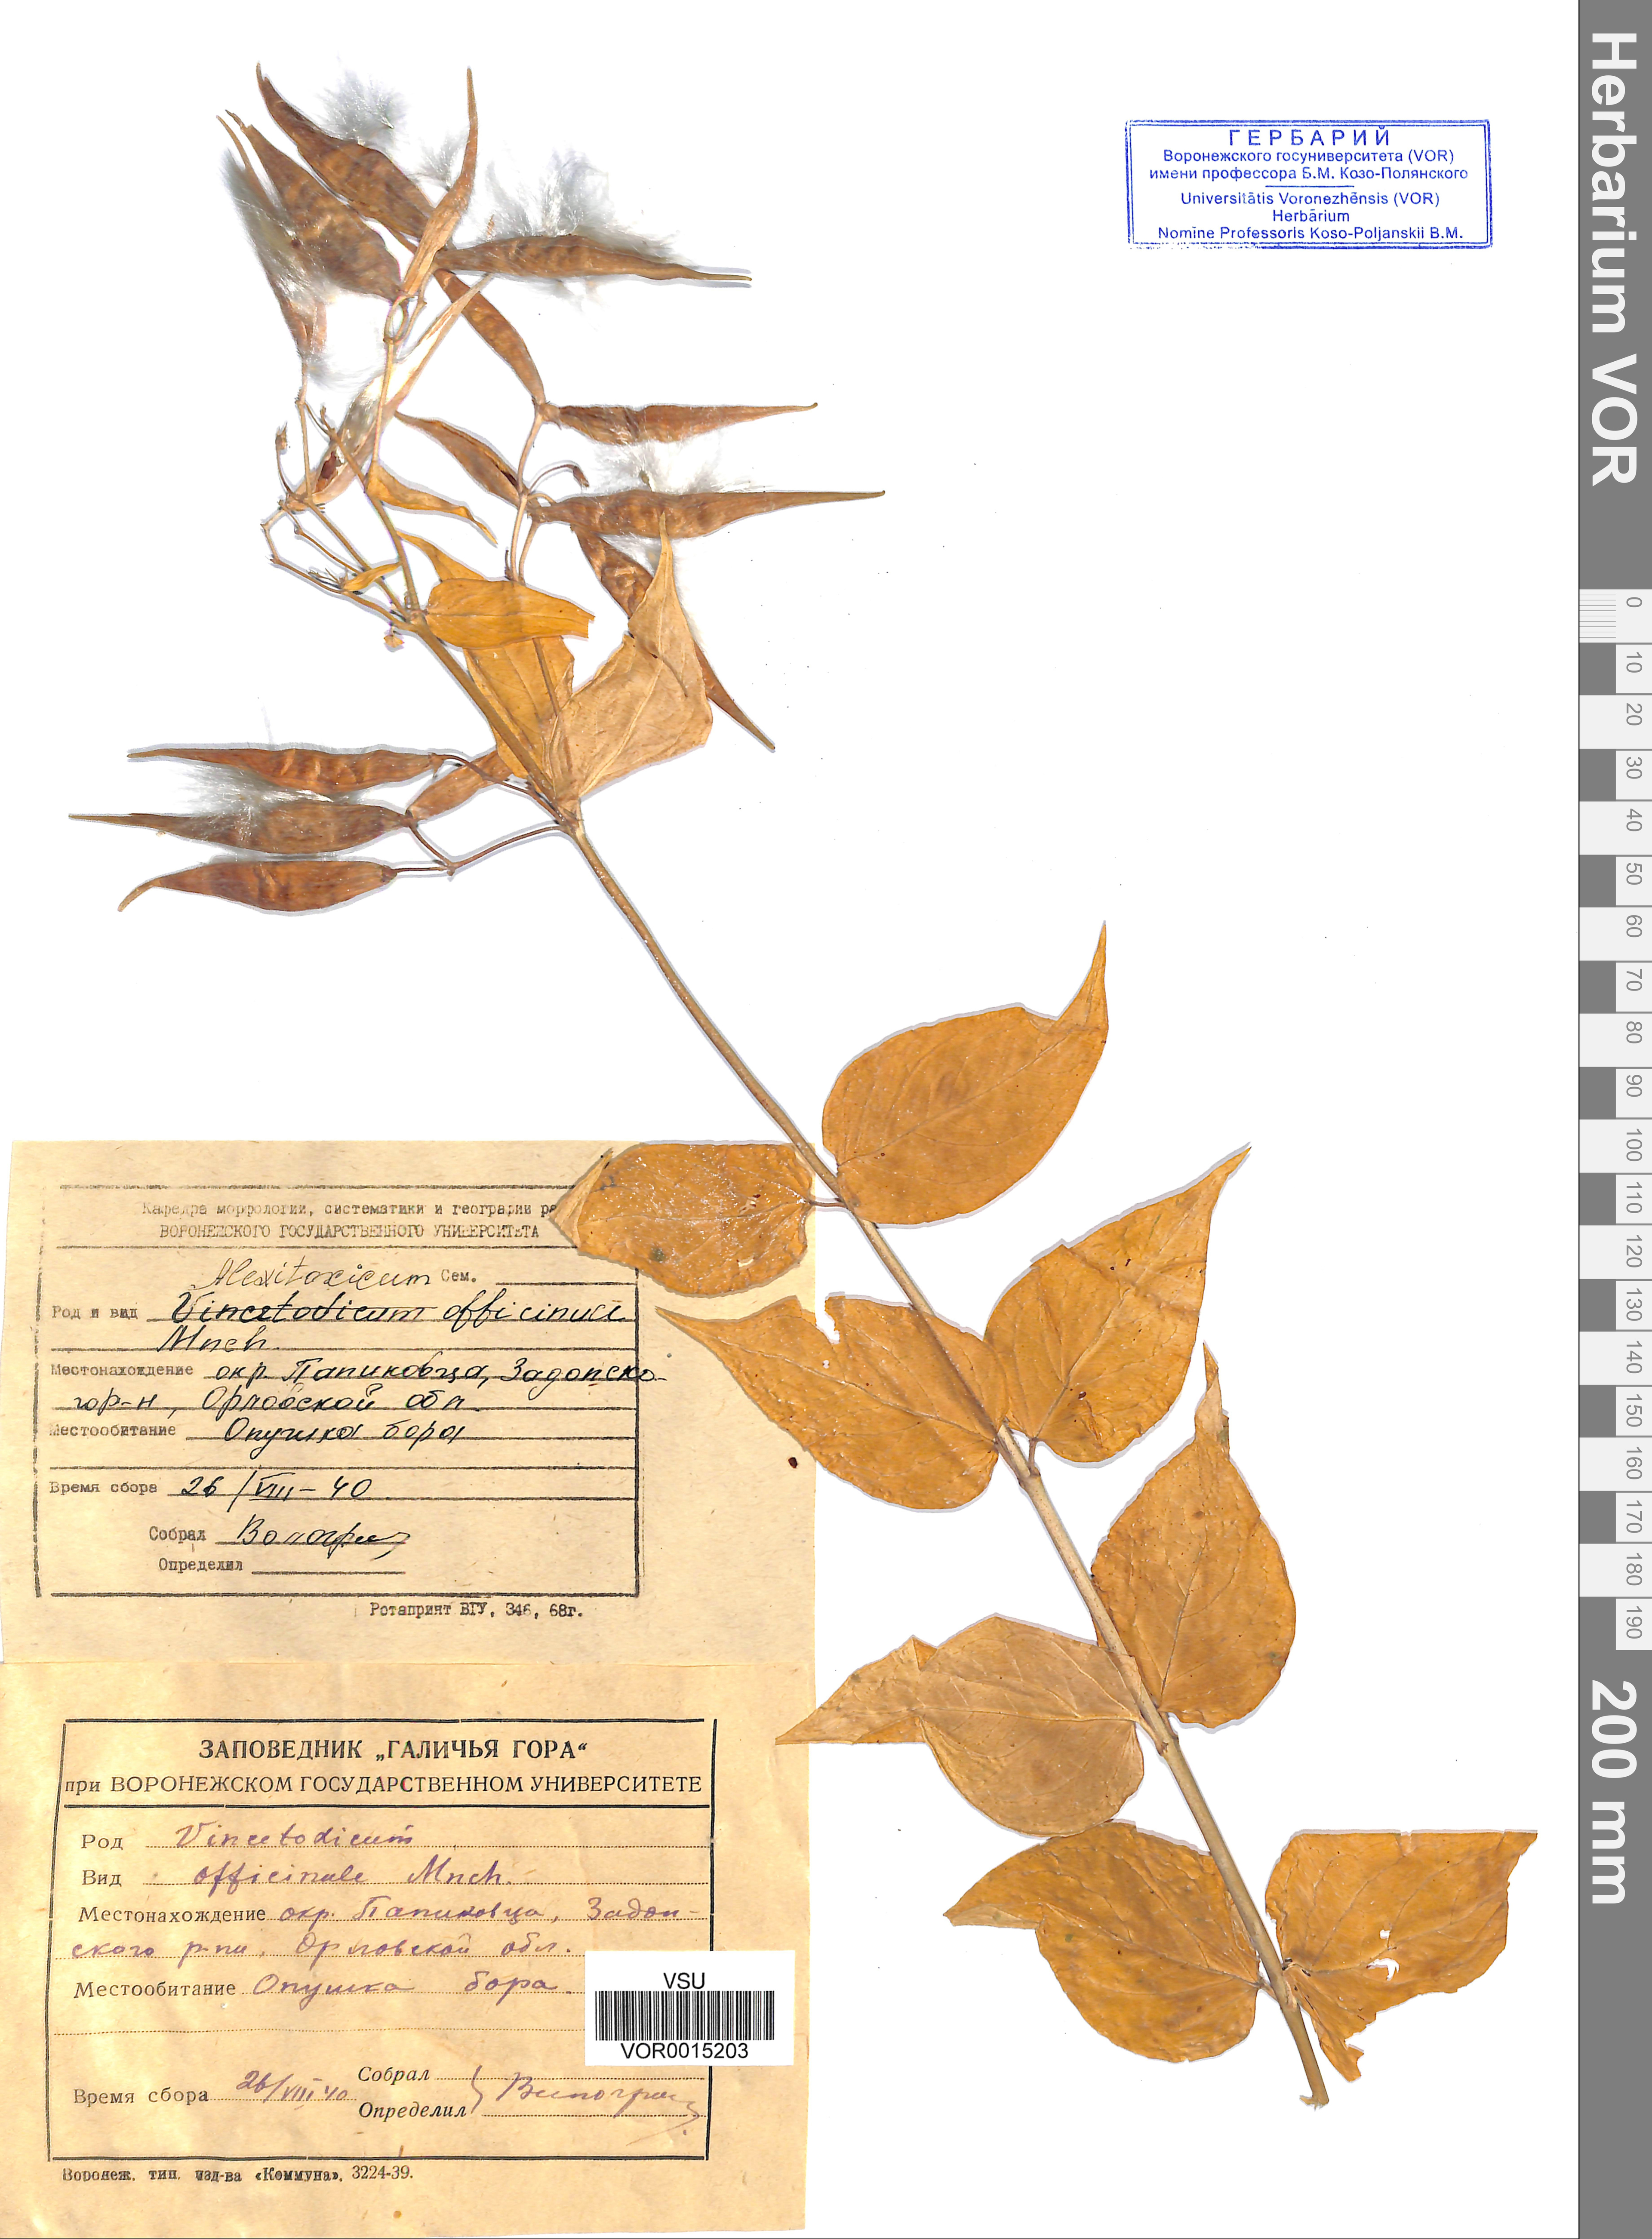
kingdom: Plantae
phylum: Tracheophyta
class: Magnoliopsida
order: Gentianales
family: Apocynaceae
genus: Vincetoxicum
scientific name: Vincetoxicum hirundinaria
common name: White swallowwort
